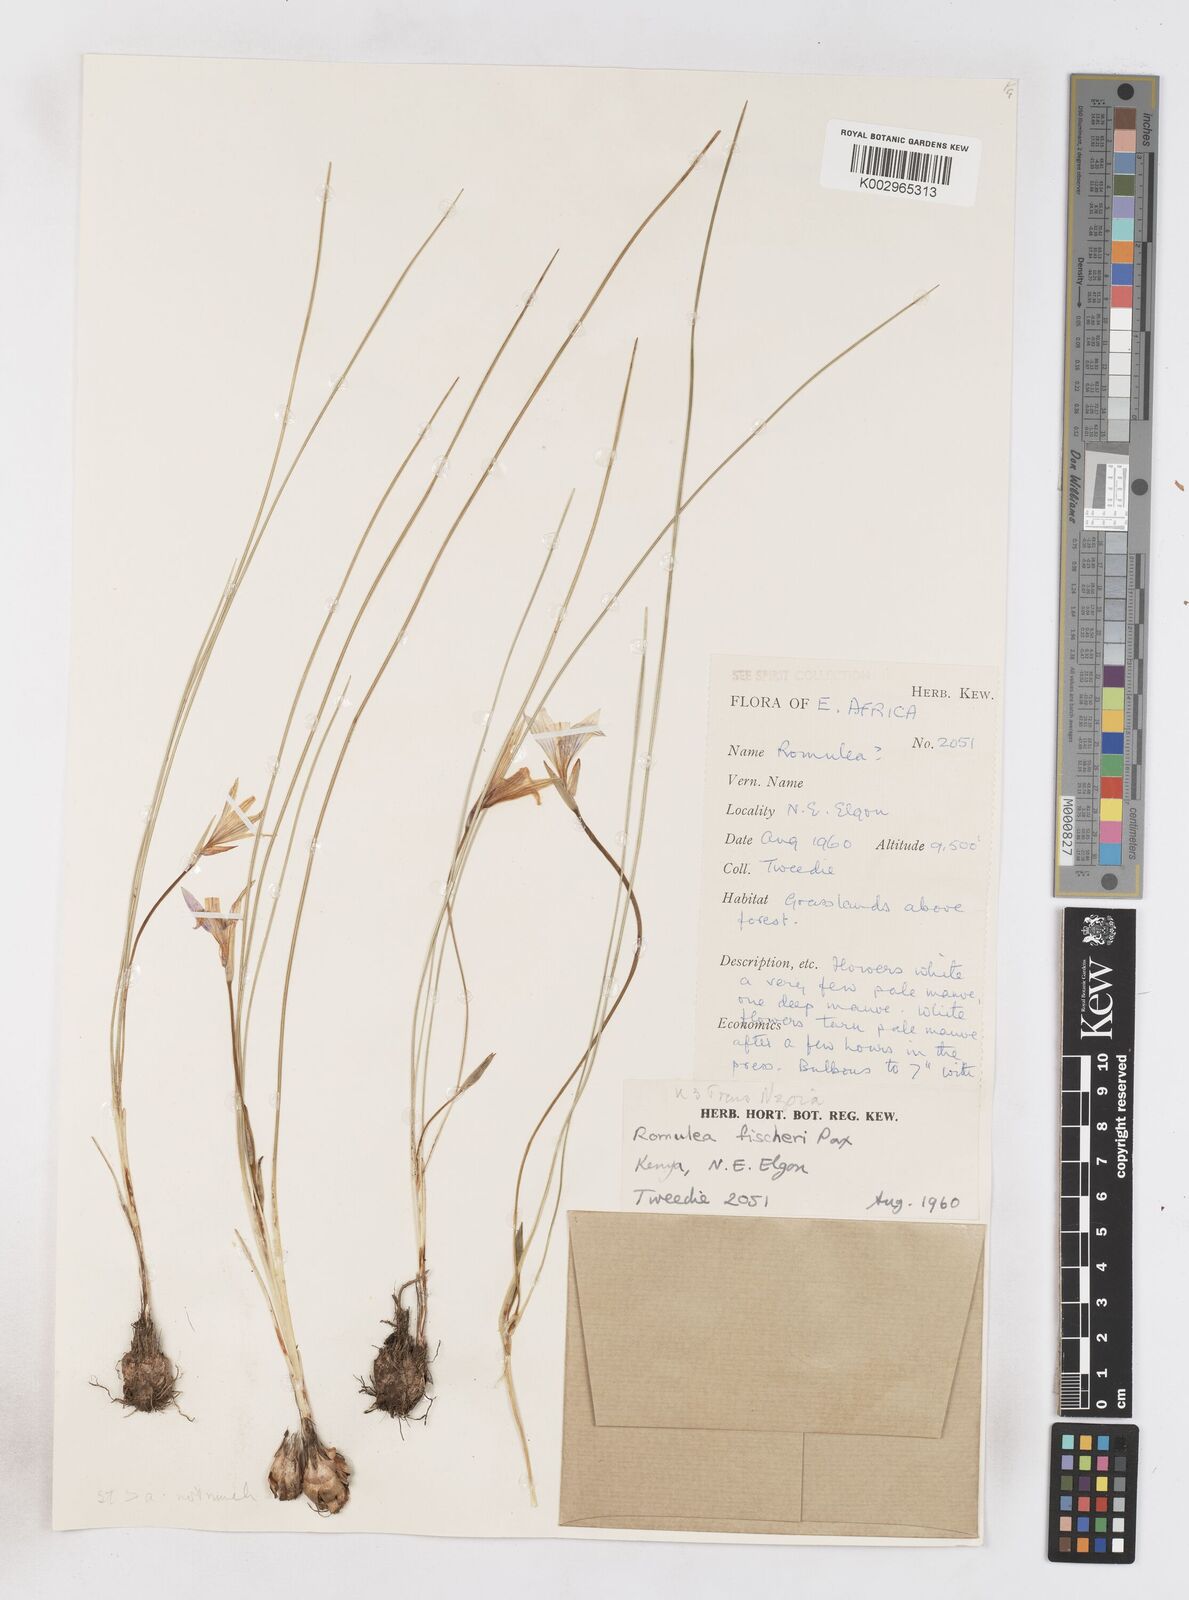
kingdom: Plantae
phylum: Tracheophyta
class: Liliopsida
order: Asparagales
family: Iridaceae
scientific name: Iridaceae
